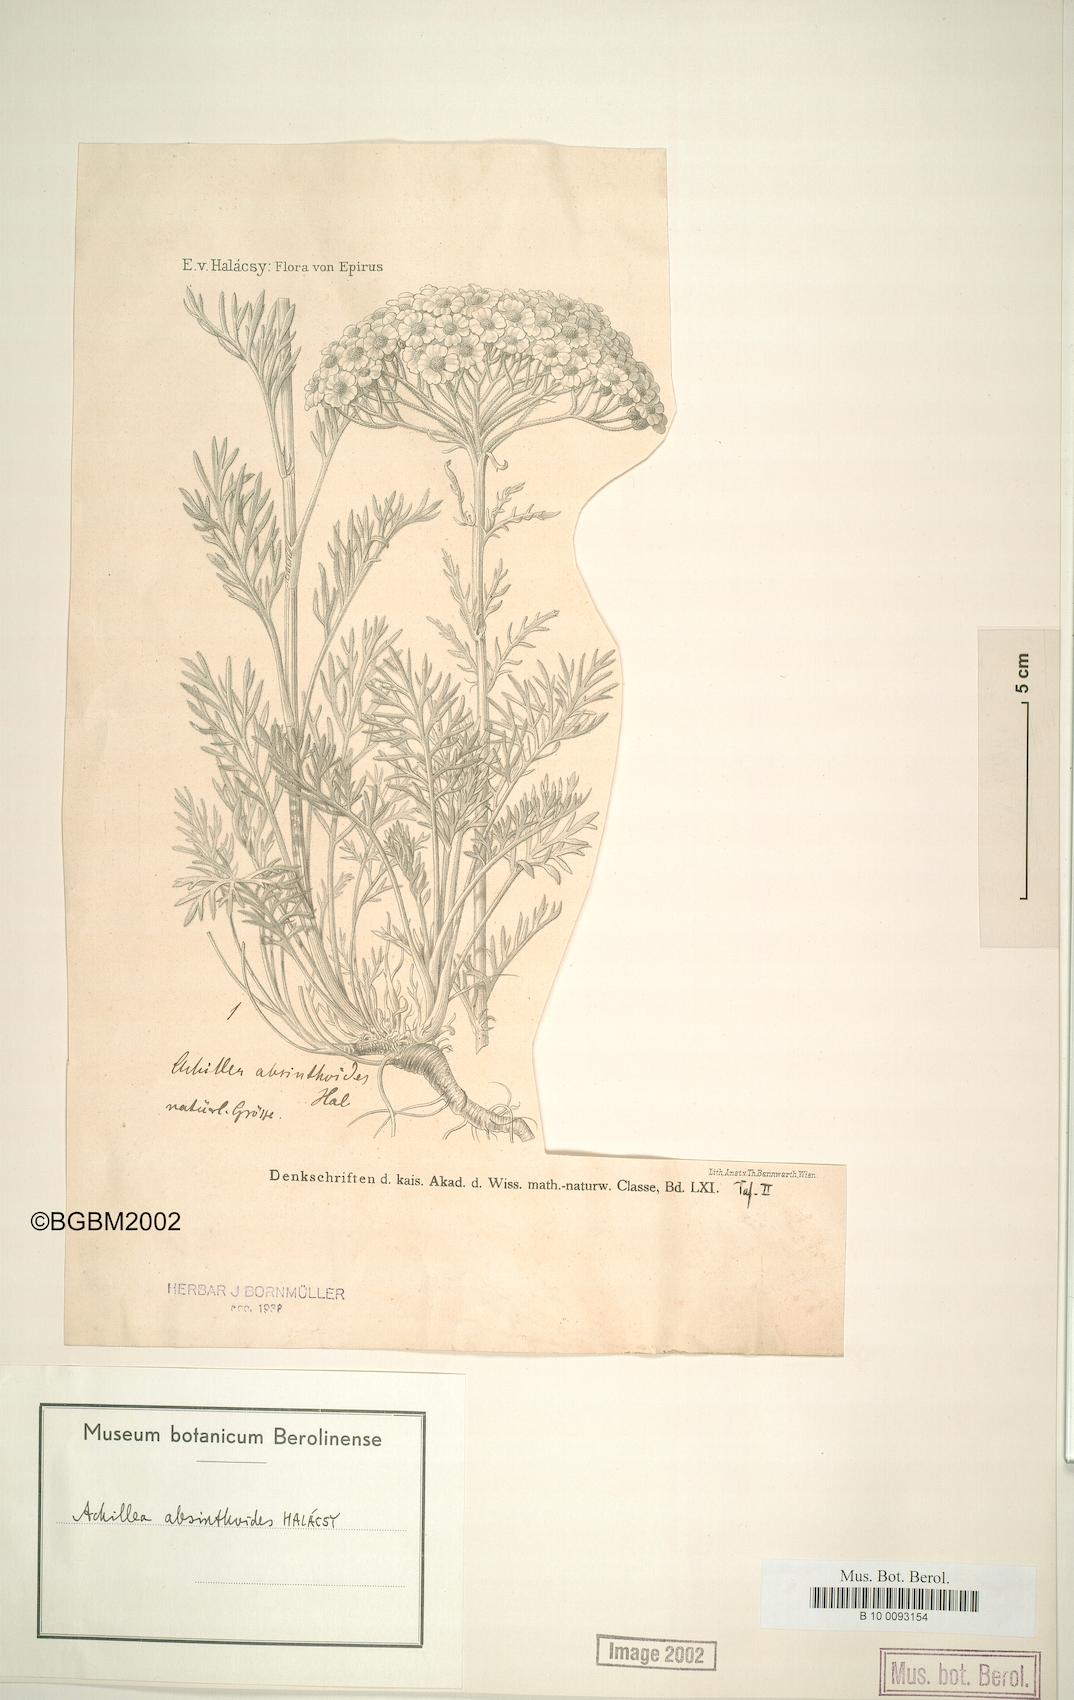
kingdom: Plantae
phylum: Tracheophyta
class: Magnoliopsida
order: Asterales
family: Asteraceae
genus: Achillea
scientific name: Achillea absinthoides
